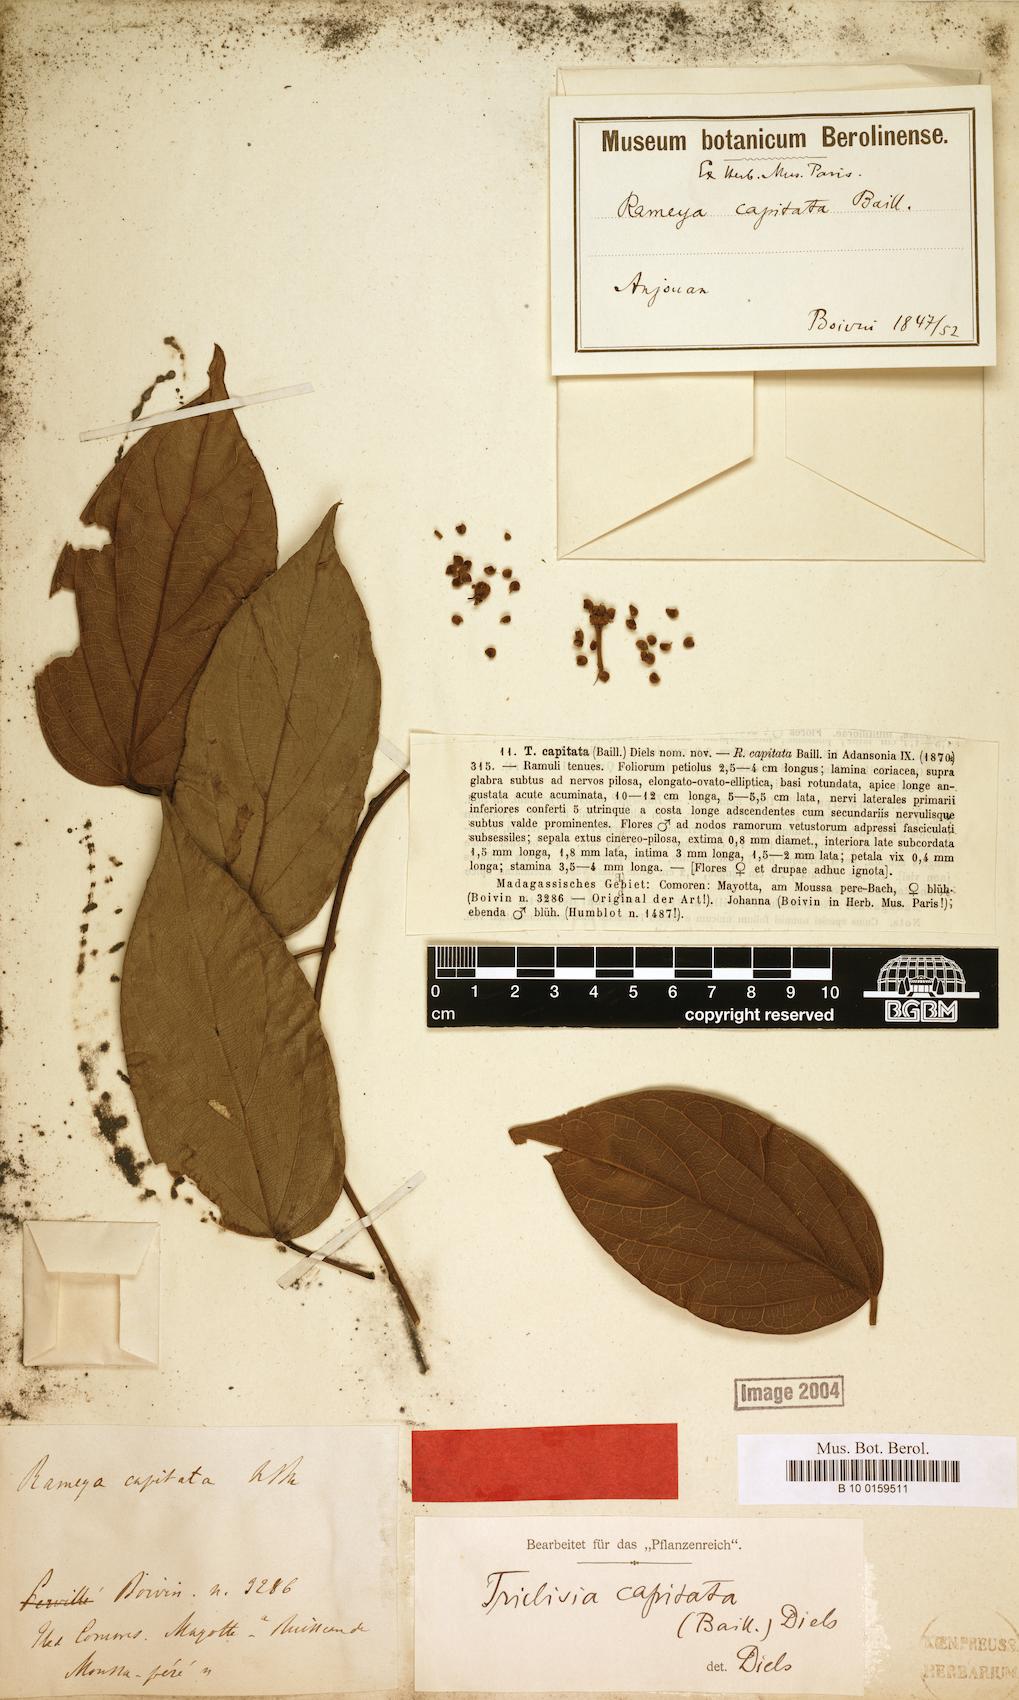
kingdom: Plantae
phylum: Tracheophyta
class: Magnoliopsida
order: Ranunculales
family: Menispermaceae
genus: Triclisia
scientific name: Triclisia capitata
